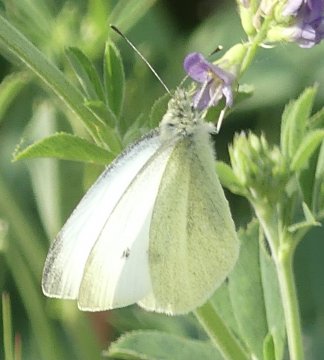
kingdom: Animalia
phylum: Arthropoda
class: Insecta
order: Lepidoptera
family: Pieridae
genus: Pieris
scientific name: Pieris rapae
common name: Cabbage White
